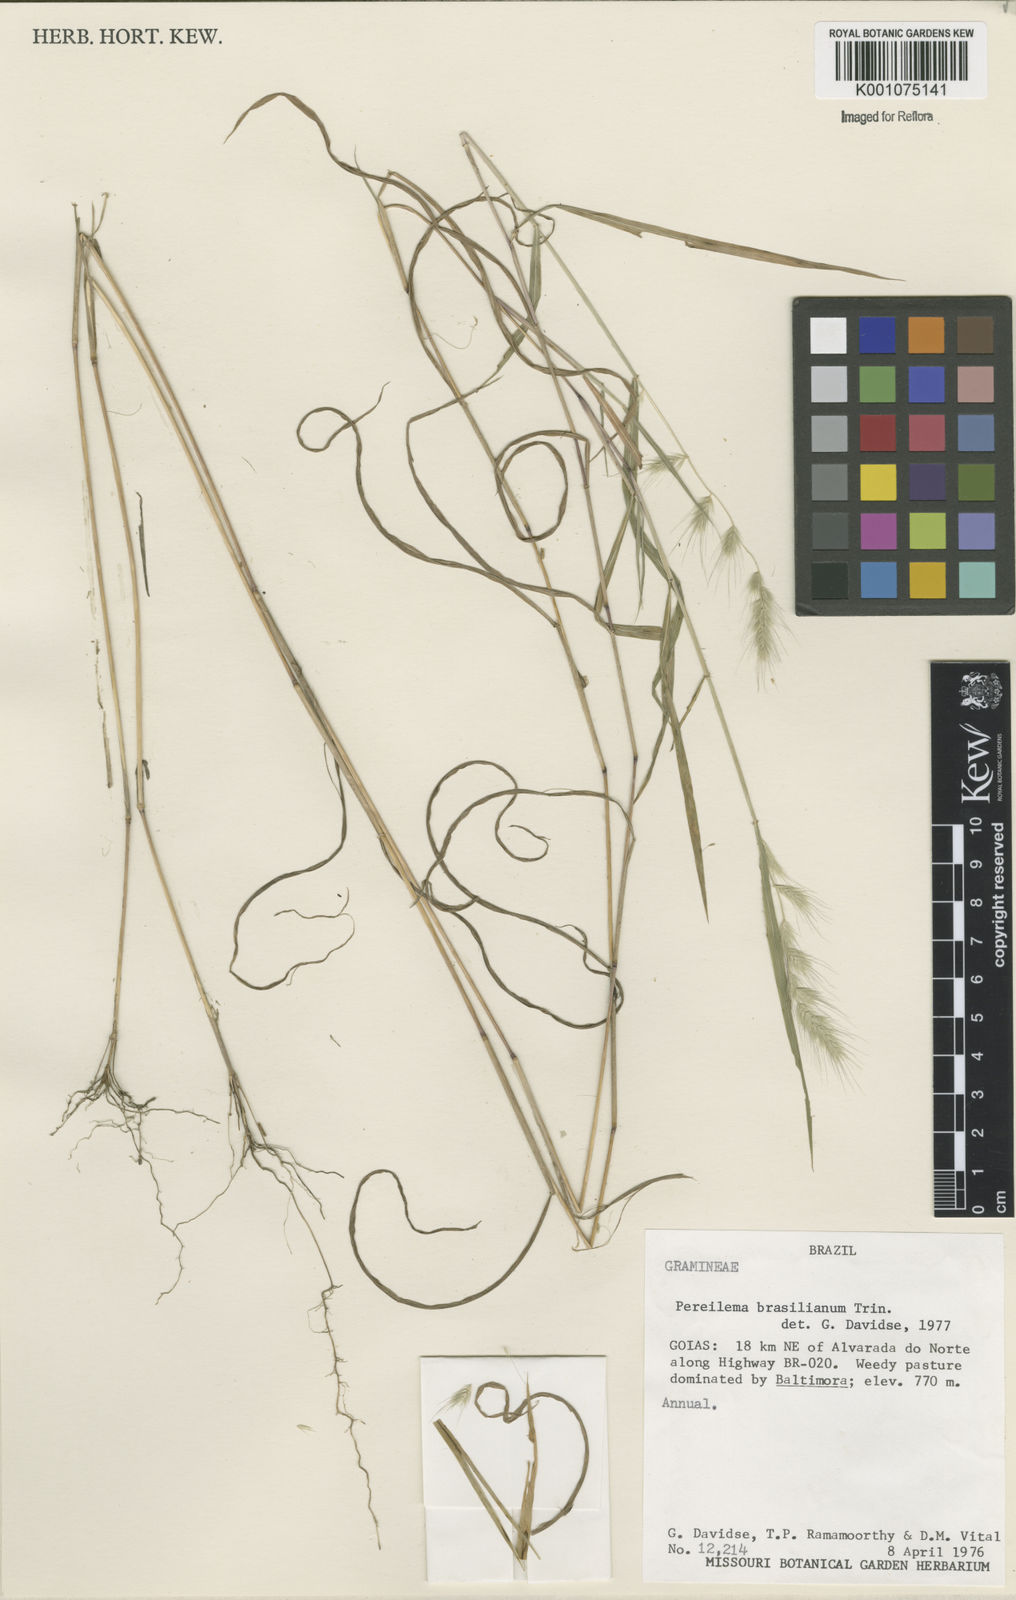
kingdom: Plantae
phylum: Tracheophyta
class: Liliopsida
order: Poales
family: Poaceae
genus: Muhlenbergia
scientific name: Muhlenbergia beyrichiana
